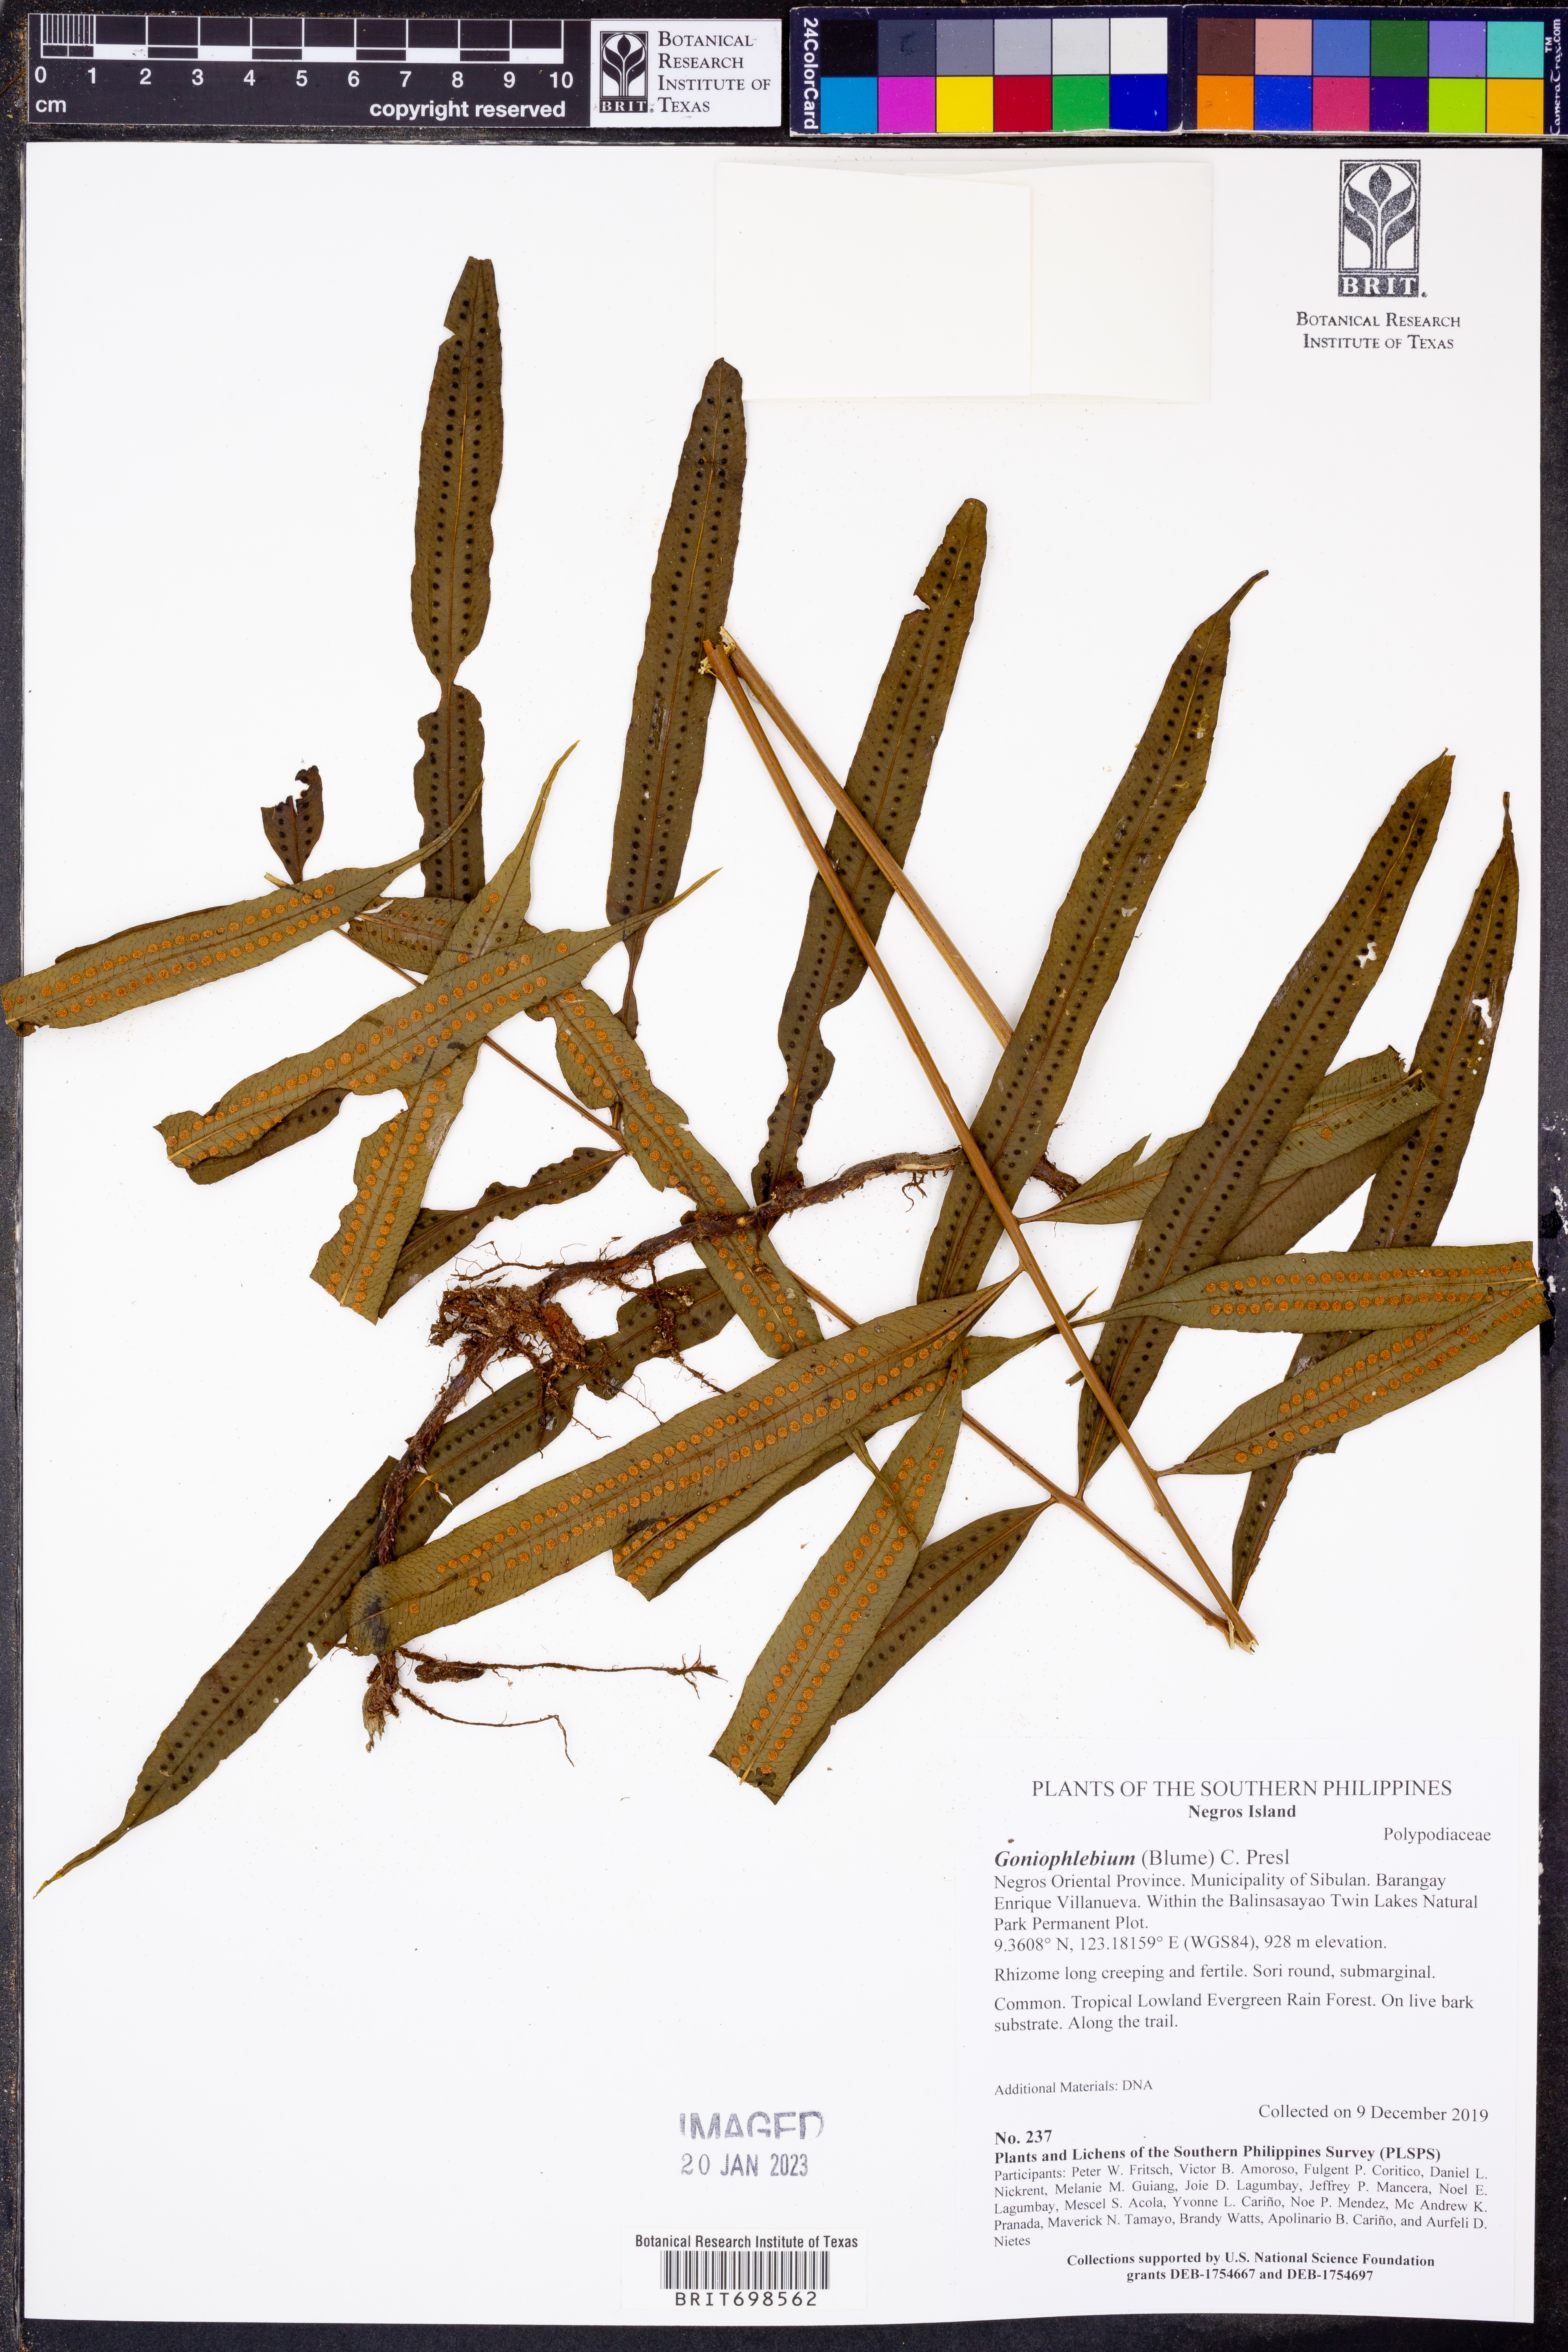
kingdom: Plantae
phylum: Tracheophyta
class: Polypodiopsida
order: Polypodiales
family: Polypodiaceae
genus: Goniophlebium
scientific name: Goniophlebium
